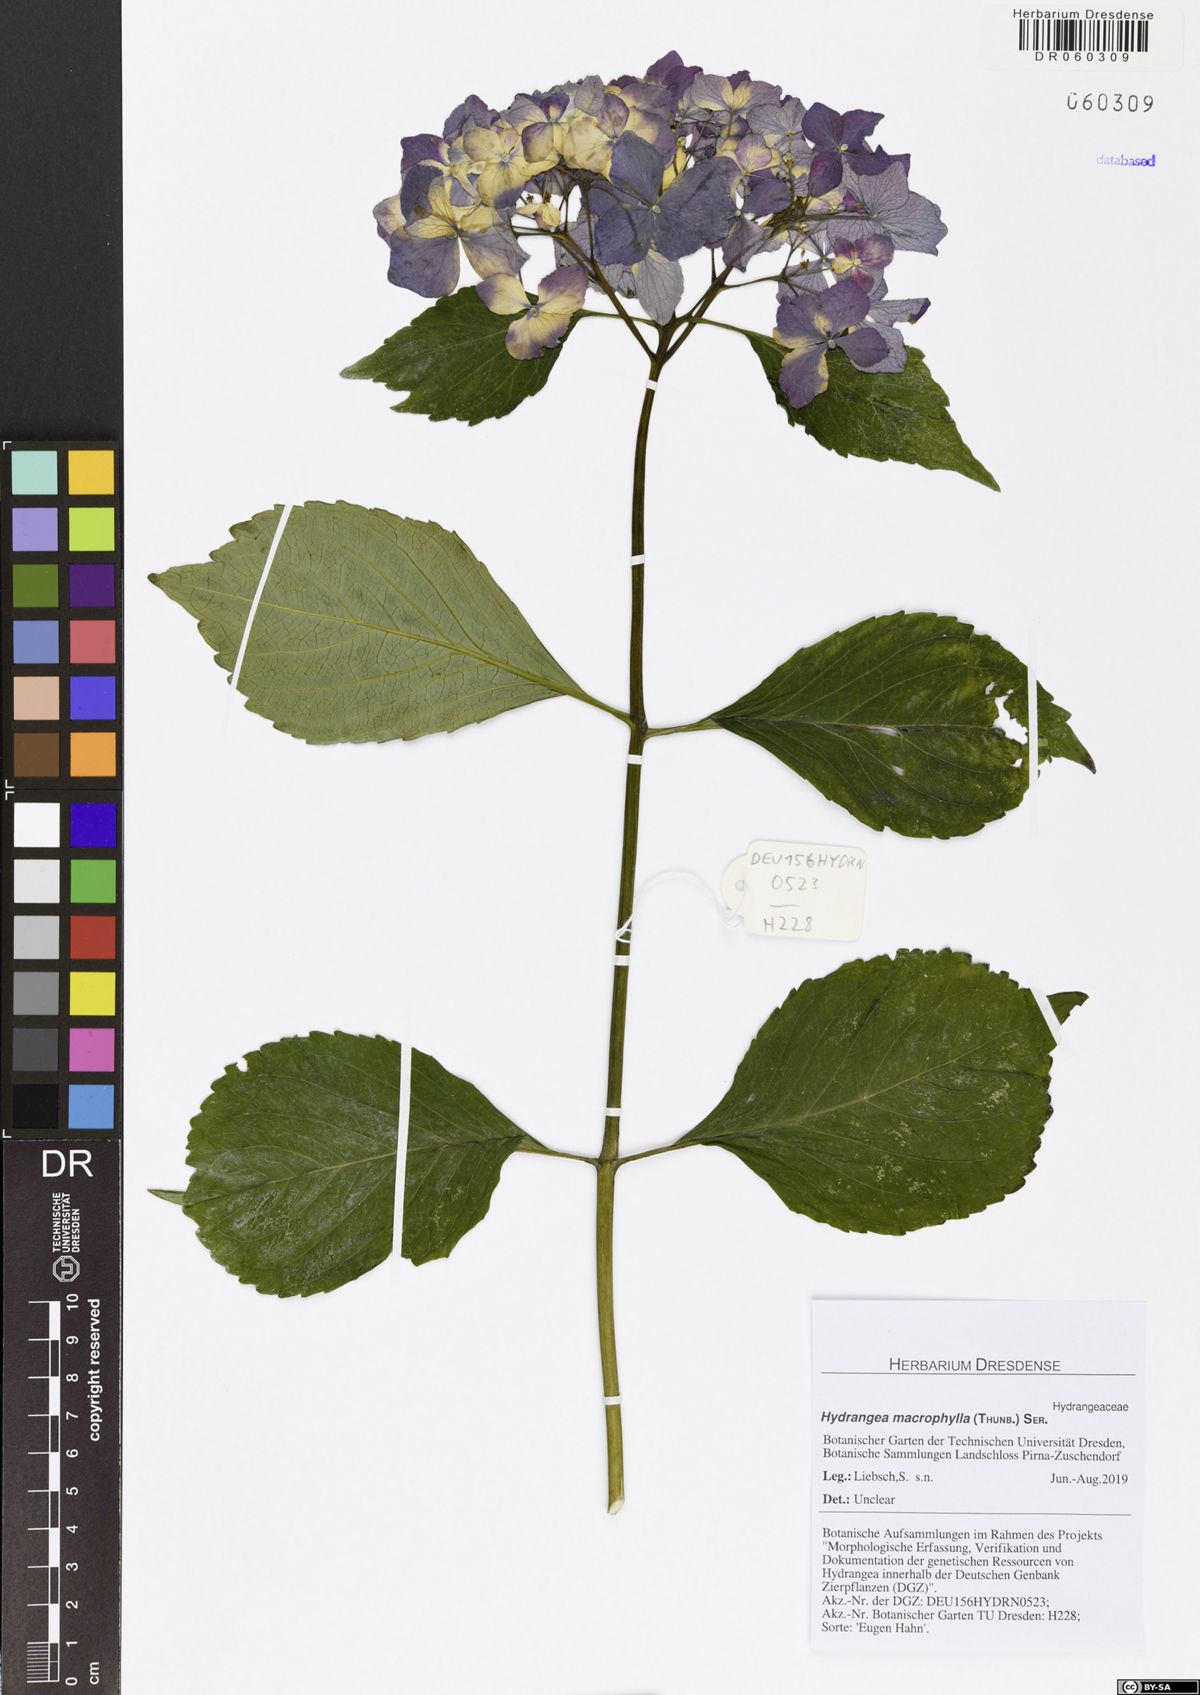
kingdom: Plantae
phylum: Tracheophyta
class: Magnoliopsida
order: Cornales
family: Hydrangeaceae
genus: Hydrangea
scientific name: Hydrangea macrophylla
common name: Hydrangea
